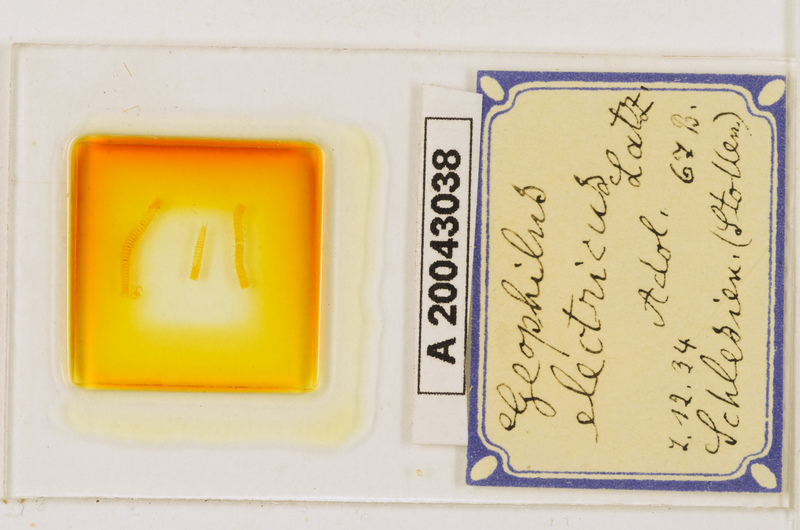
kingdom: Animalia
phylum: Arthropoda
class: Chilopoda
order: Geophilomorpha
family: Geophilidae
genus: Geophilus
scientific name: Geophilus electricus
